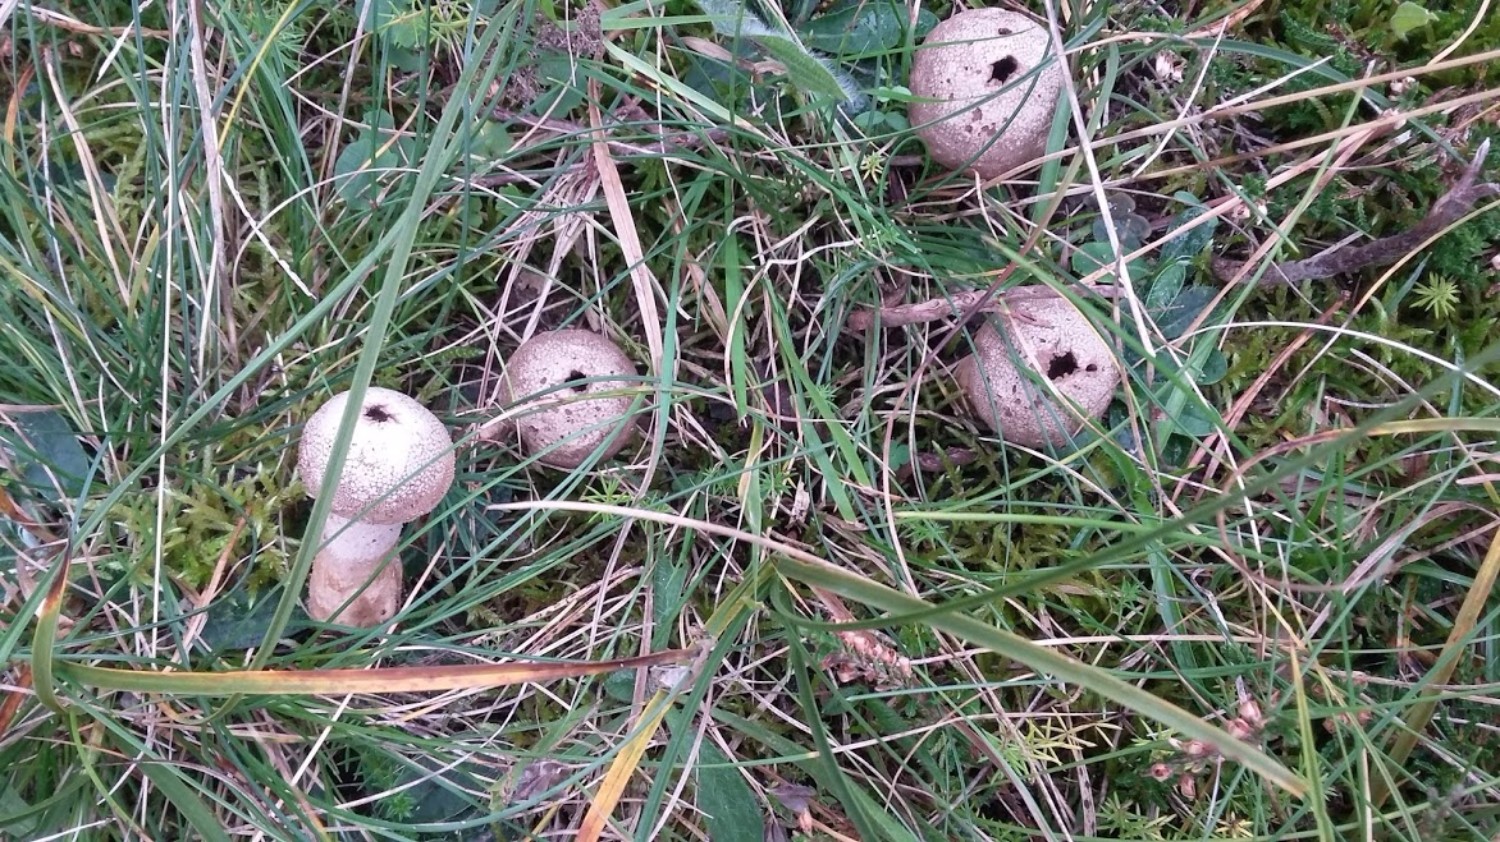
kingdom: Fungi
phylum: Basidiomycota
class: Agaricomycetes
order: Agaricales
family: Agaricaceae
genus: Lycoperdon
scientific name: Lycoperdon
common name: støvbold
